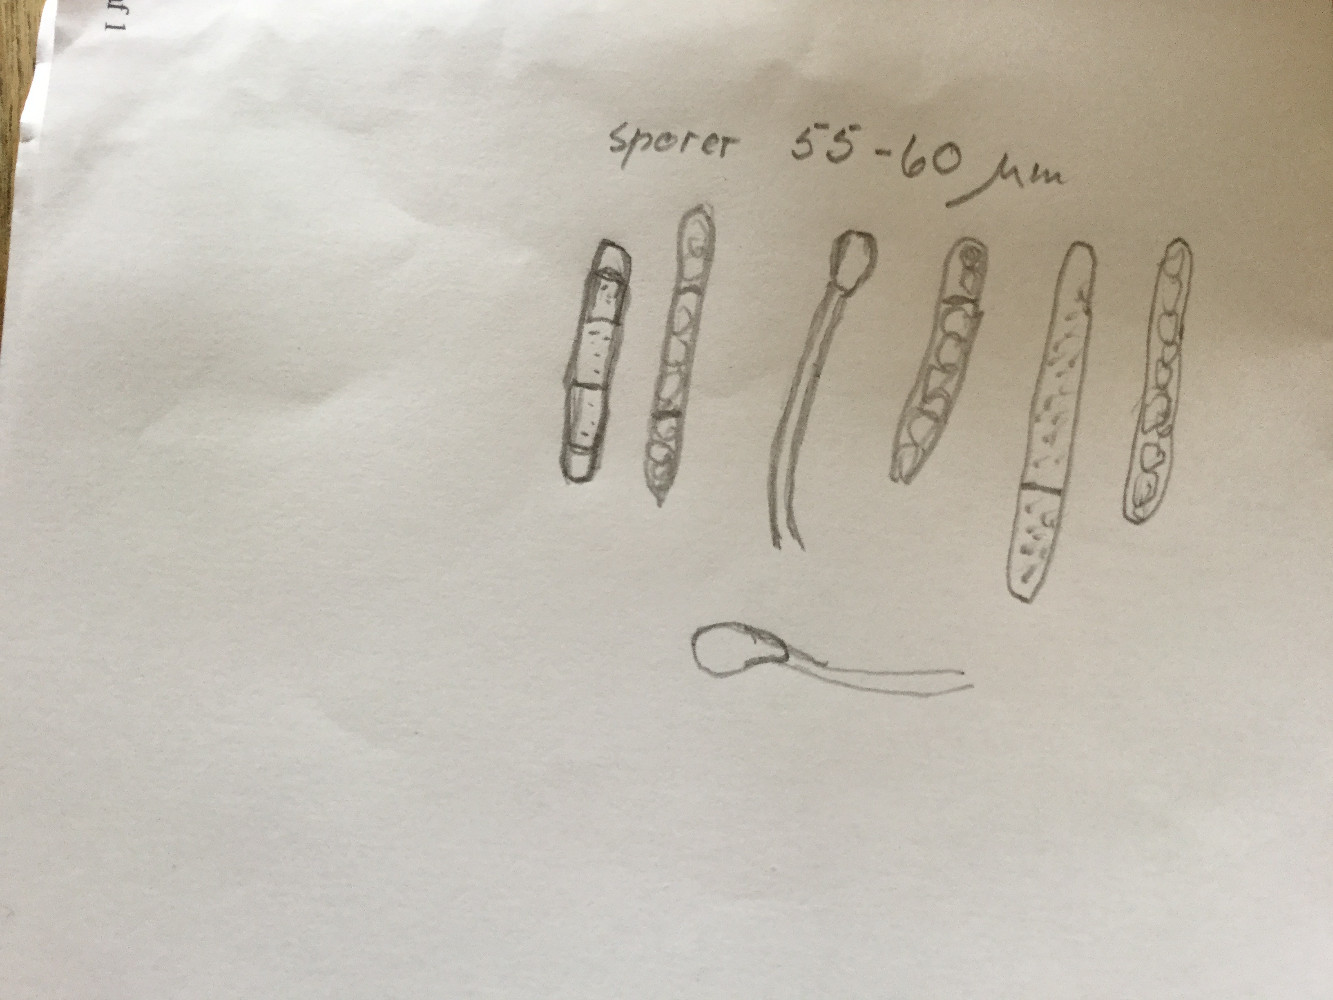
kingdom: Fungi
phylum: Ascomycota
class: Geoglossomycetes
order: Geoglossales
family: Geoglossaceae
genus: Hemileucoglossum
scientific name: Hemileucoglossum elongatum
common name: småsporet jordtunge
